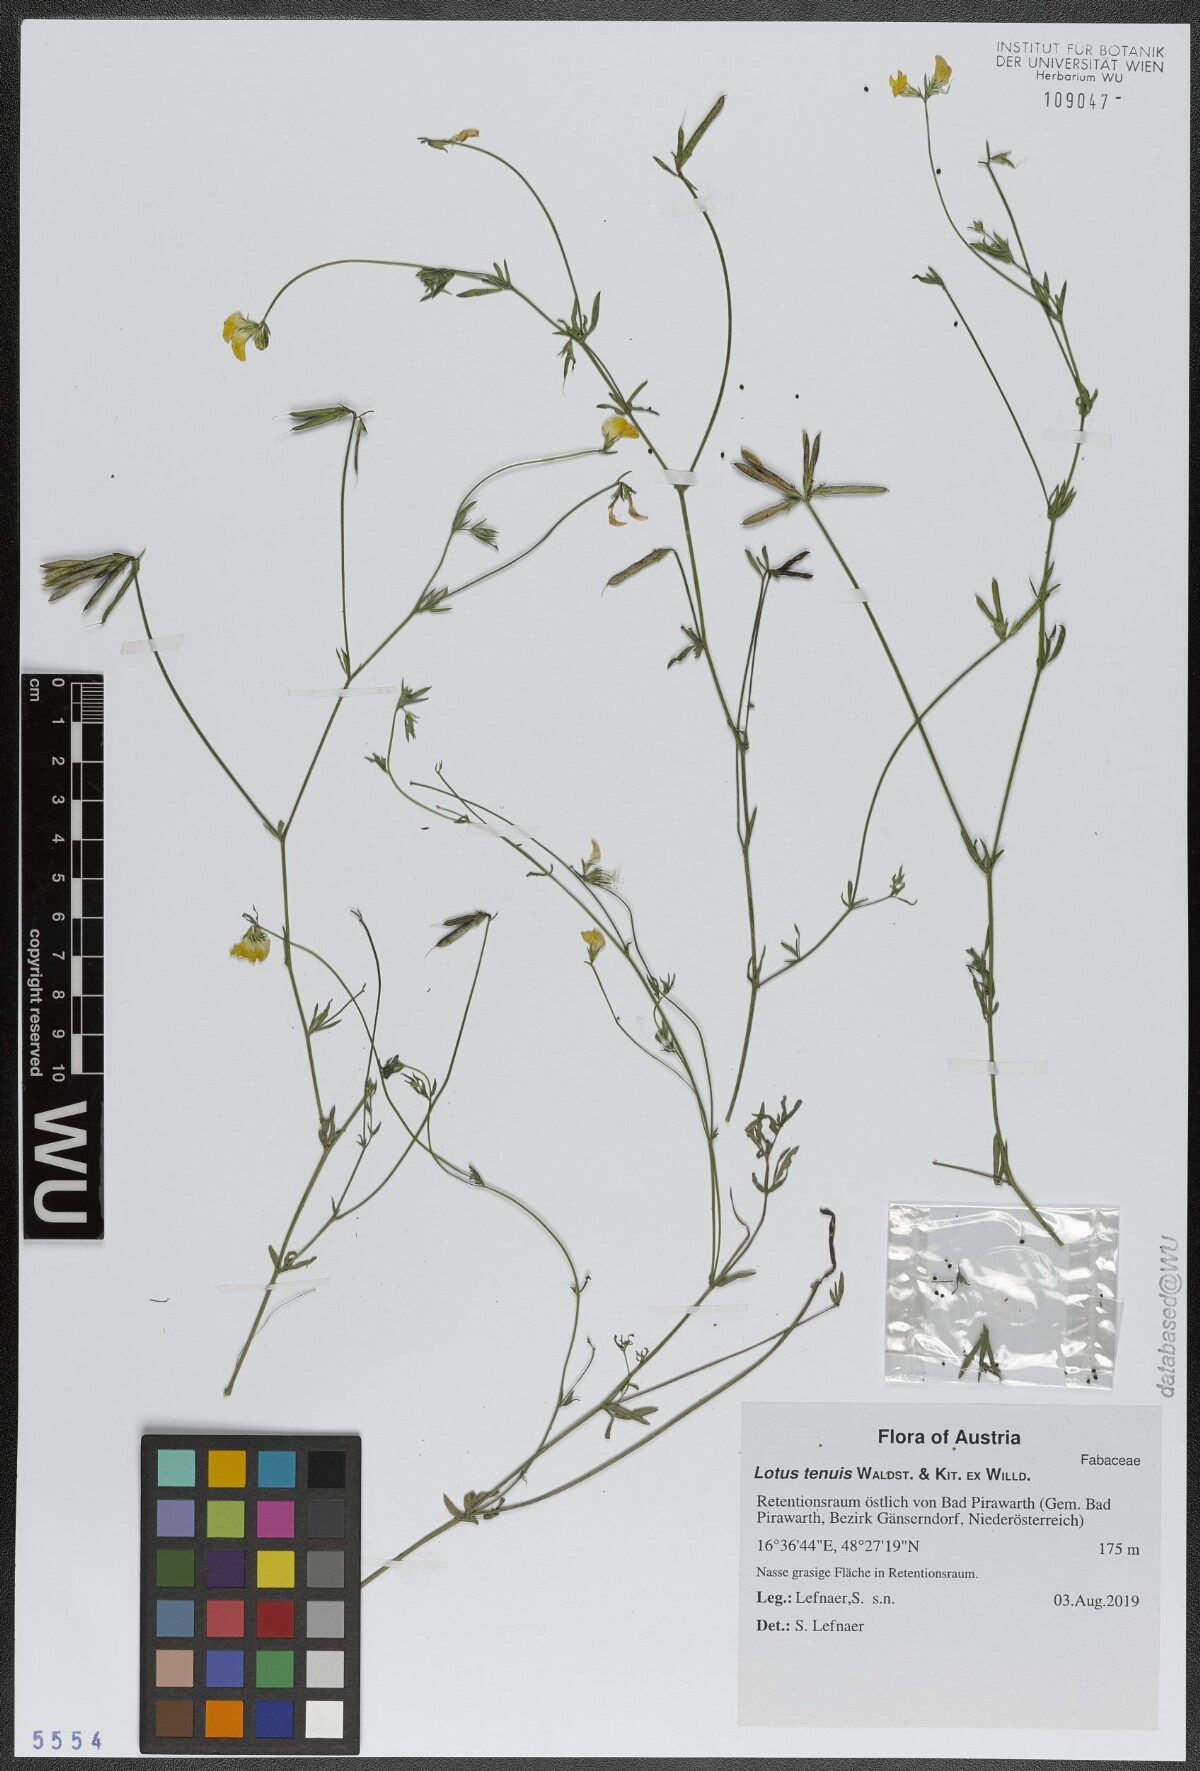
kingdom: Plantae
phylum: Tracheophyta
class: Magnoliopsida
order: Fabales
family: Fabaceae
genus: Lotus
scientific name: Lotus tenuis
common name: Narrow-leaved bird's-foot-trefoil
